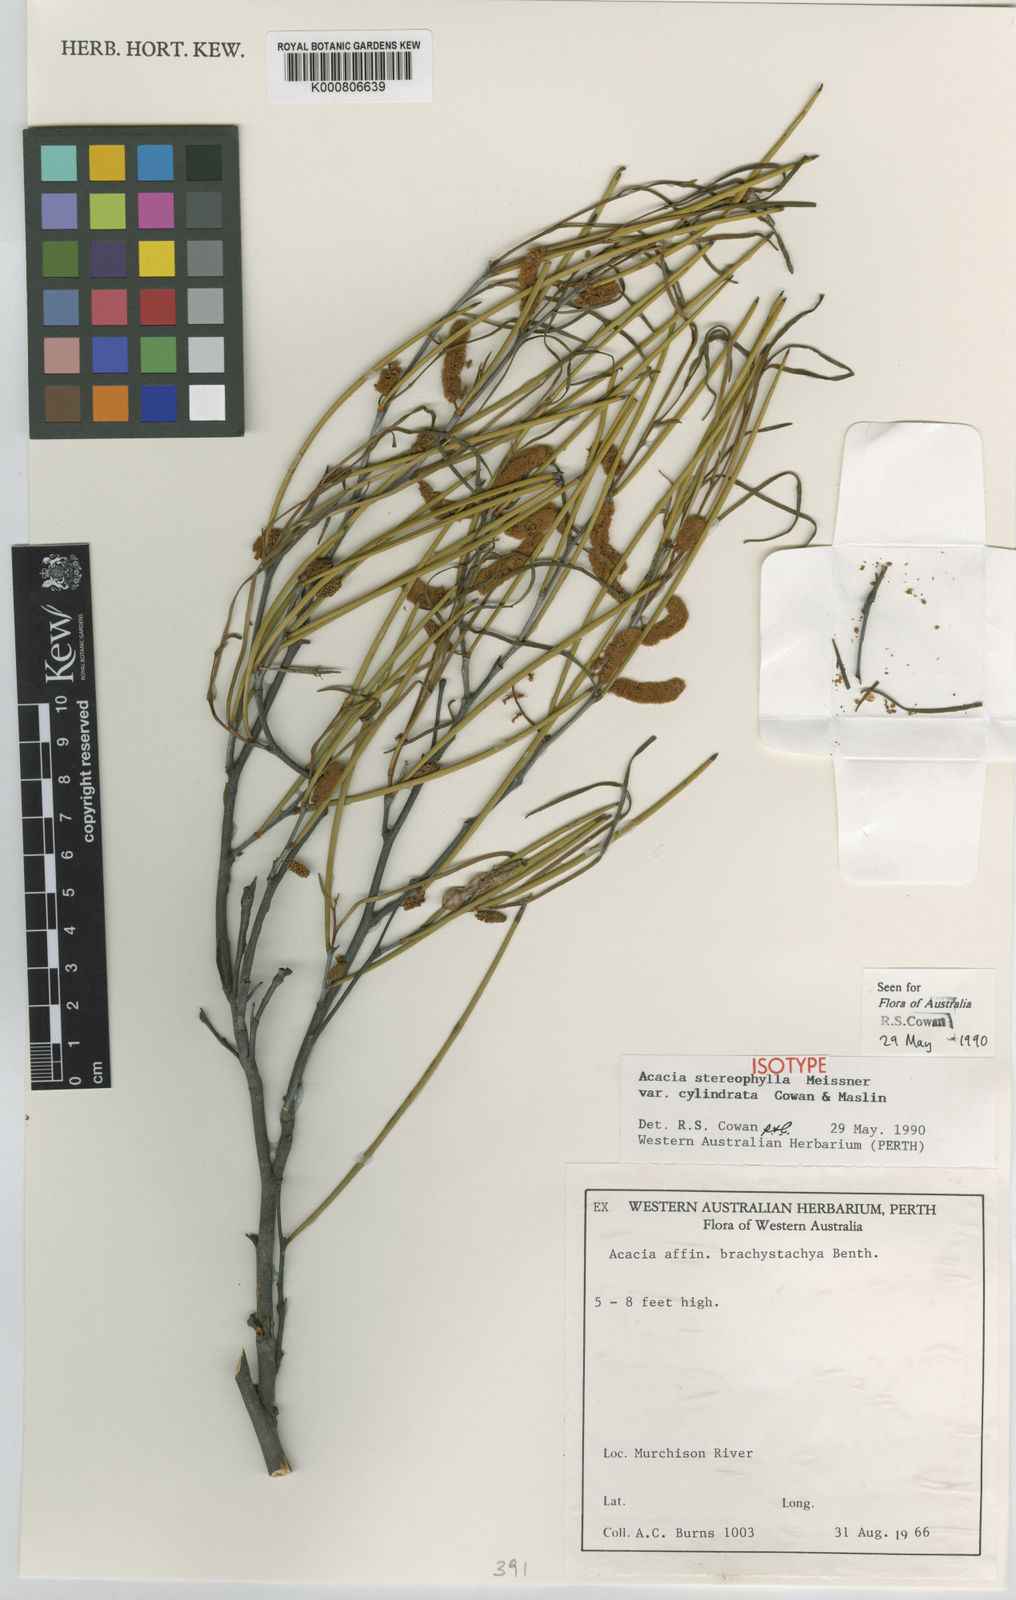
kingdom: Plantae
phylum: Tracheophyta
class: Magnoliopsida
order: Fabales
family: Fabaceae
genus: Acacia
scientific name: Acacia stereophylla
